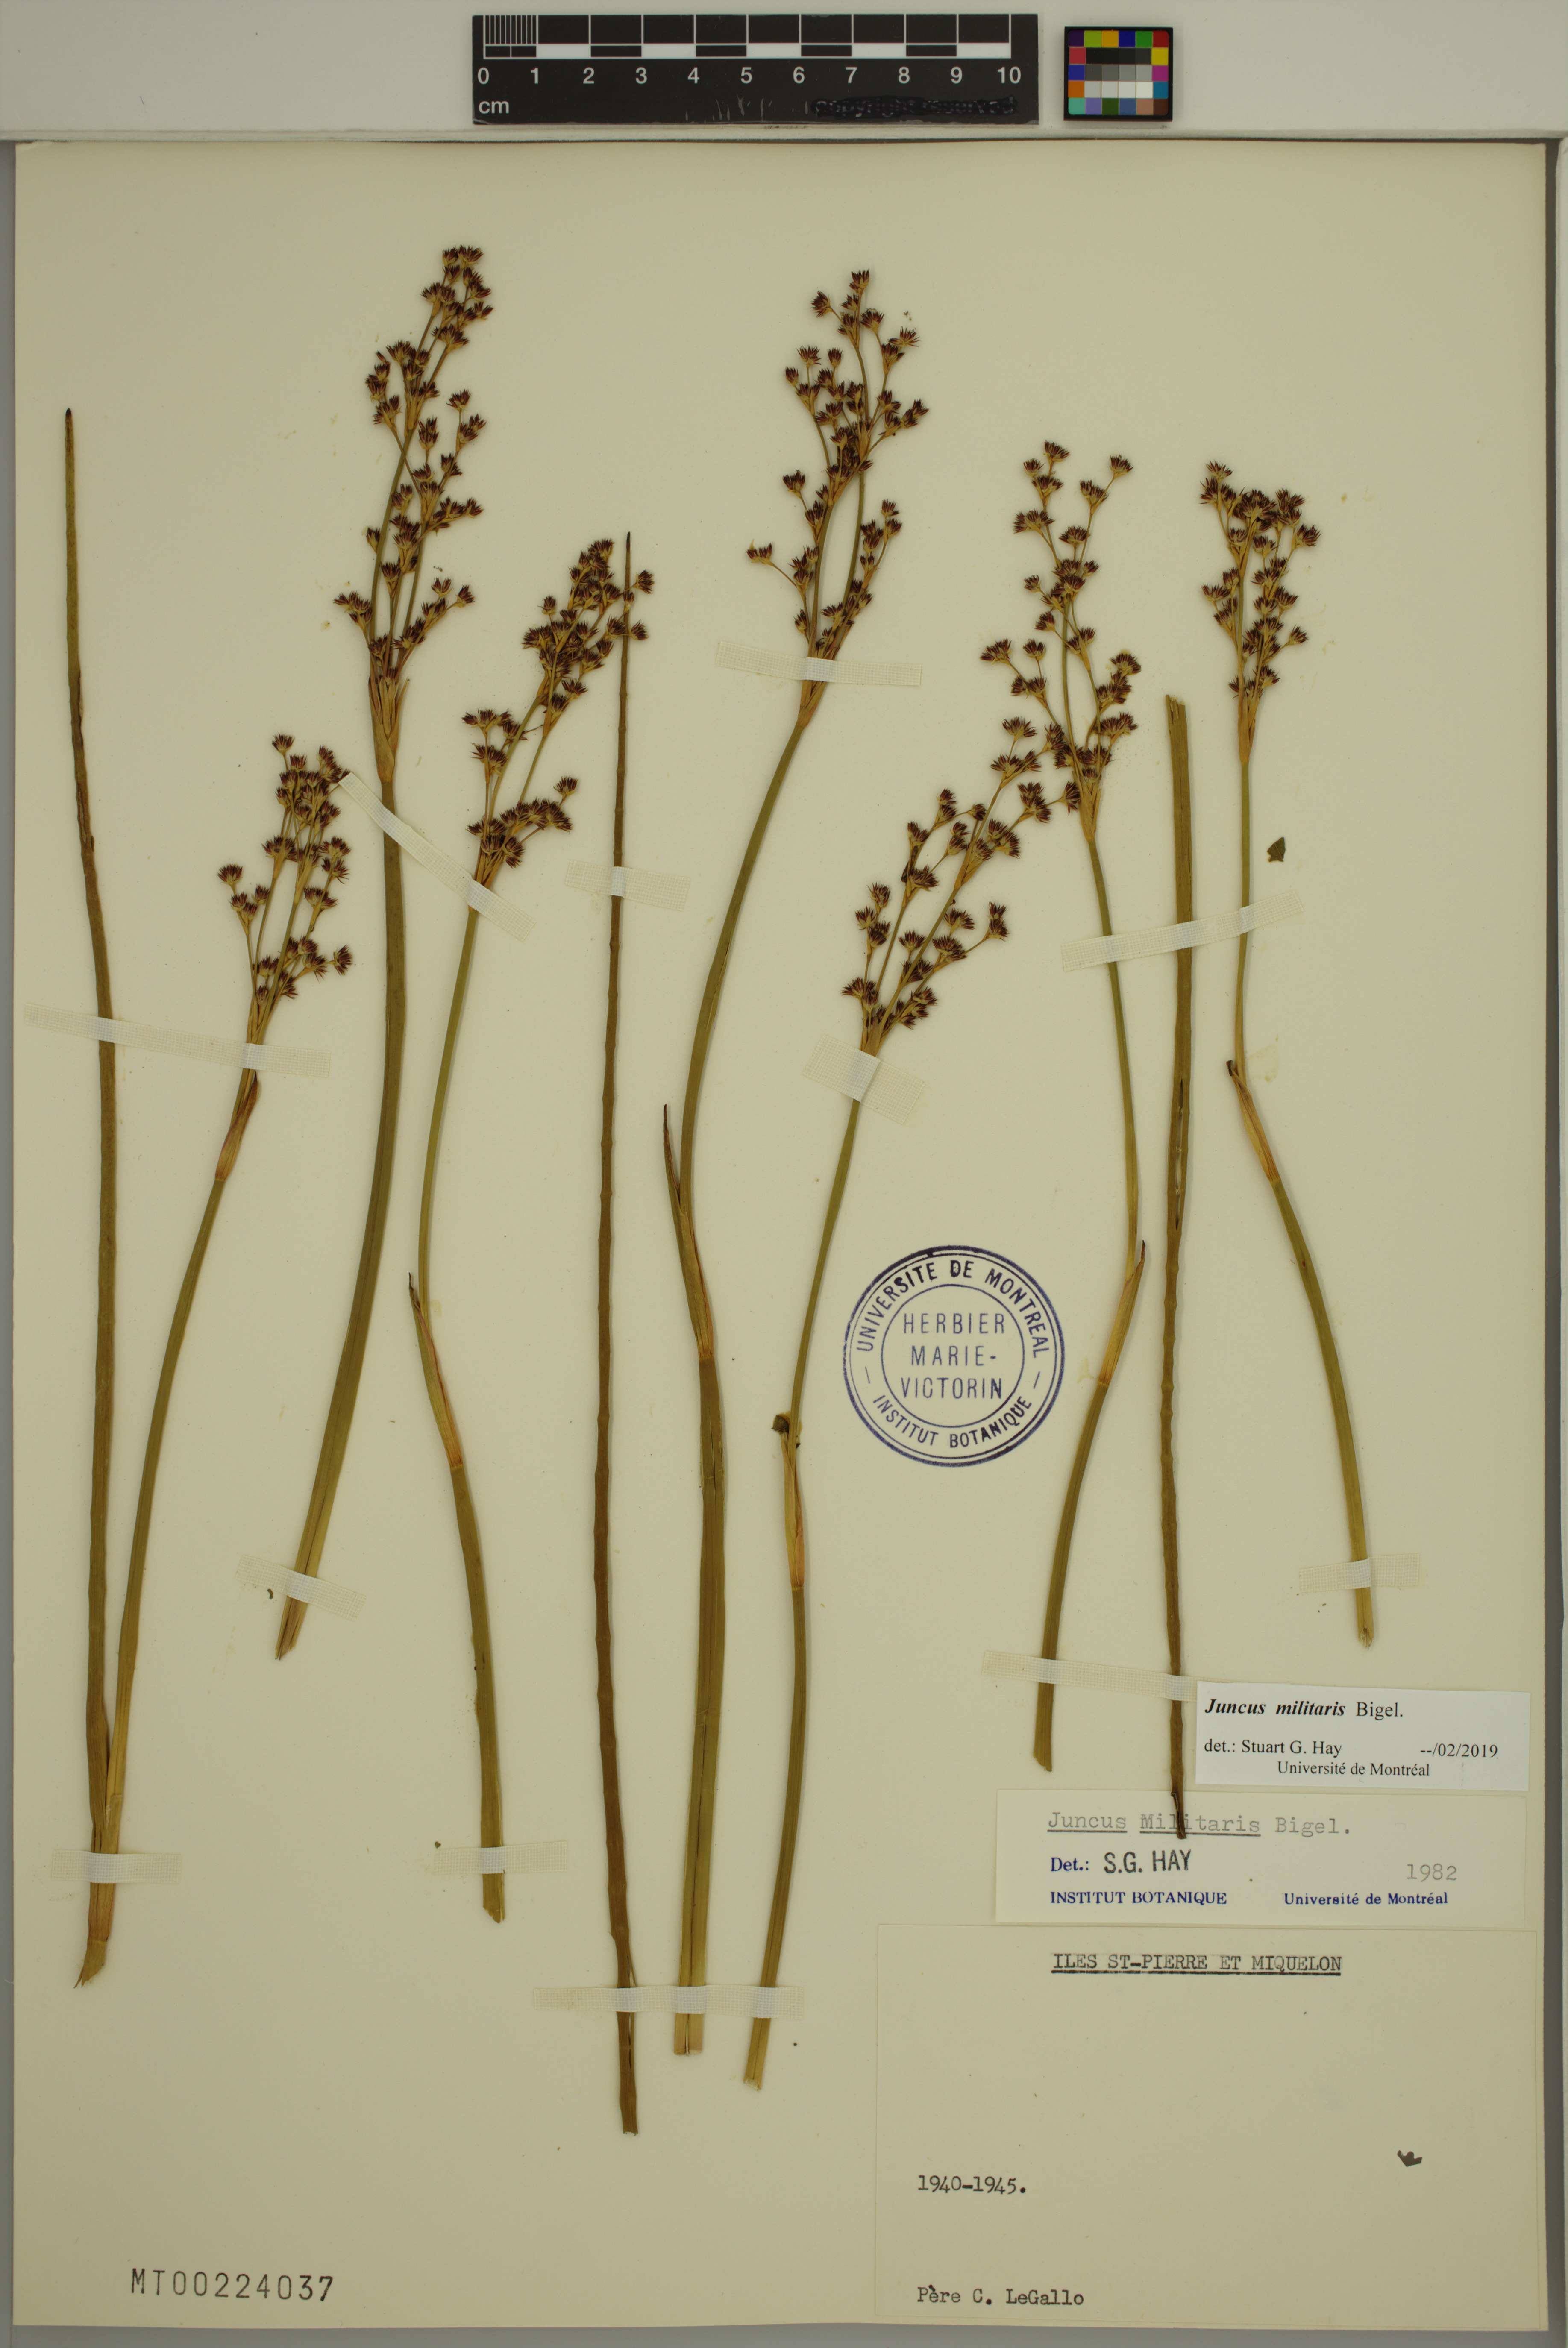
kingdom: Plantae
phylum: Tracheophyta
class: Liliopsida
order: Poales
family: Juncaceae
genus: Juncus
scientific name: Juncus militaris
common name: Bayonet rush
